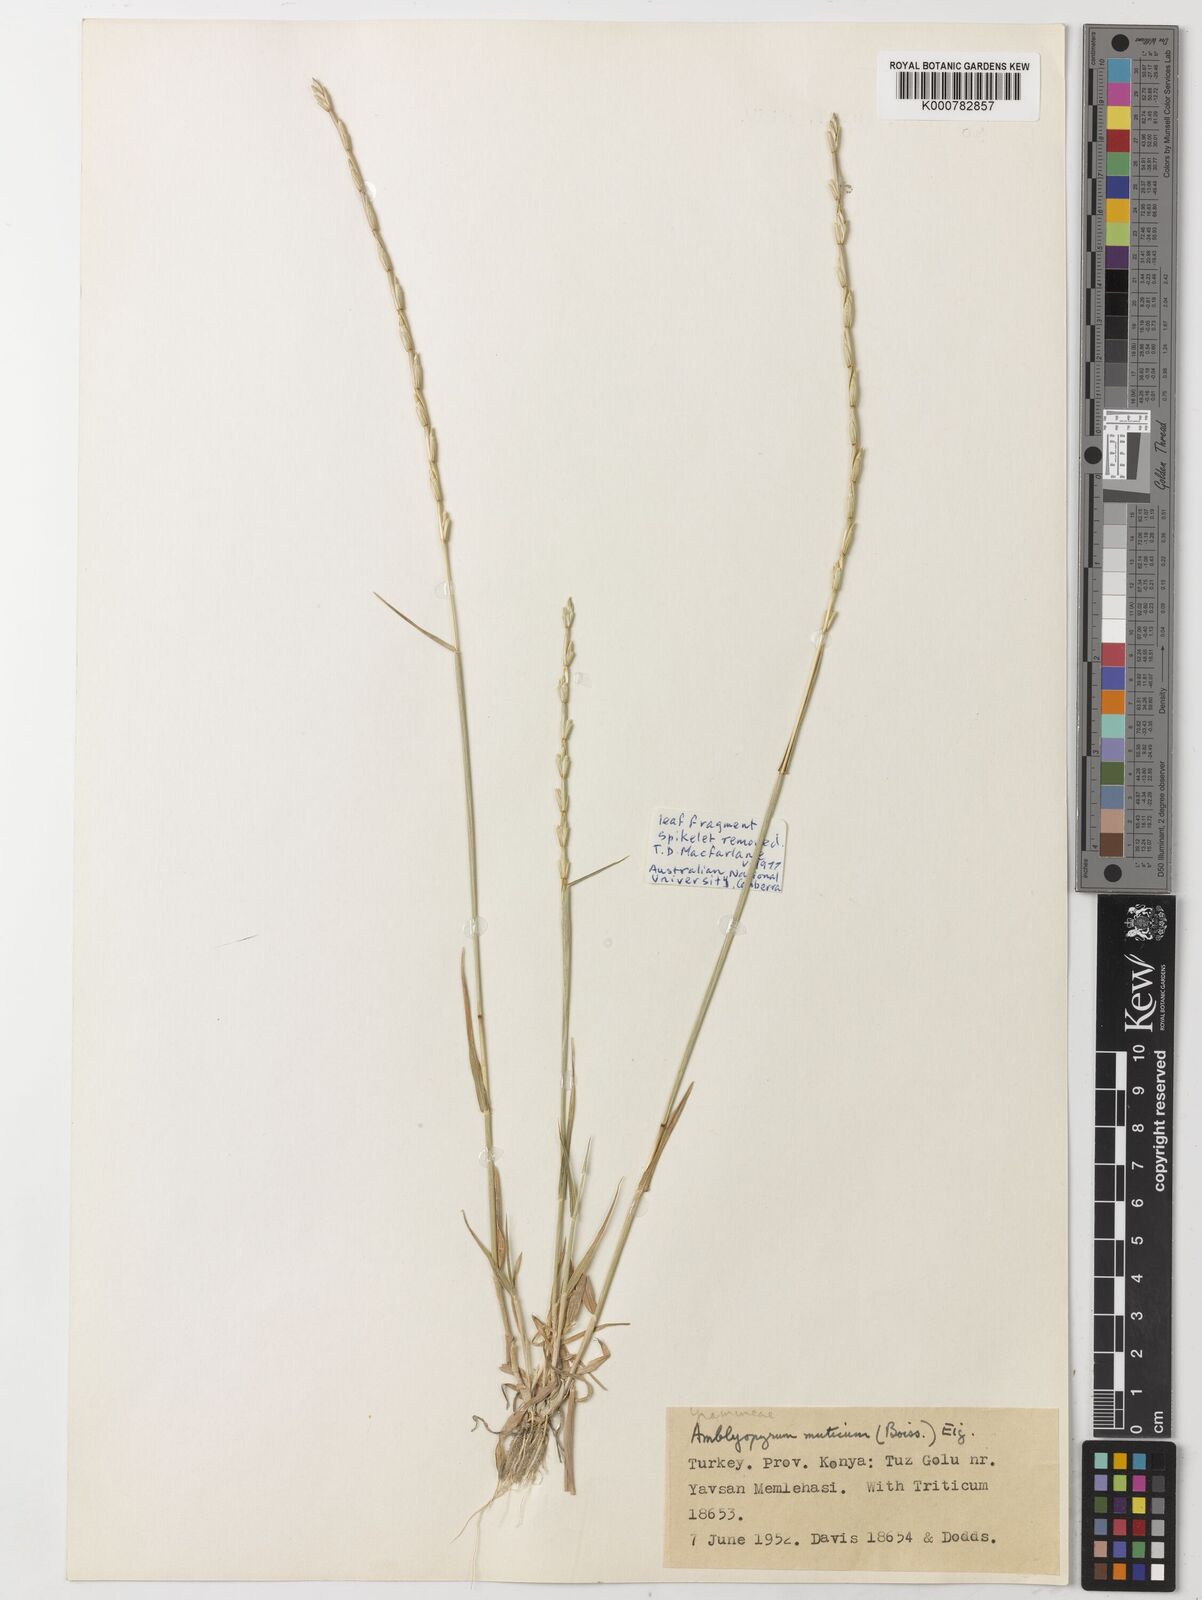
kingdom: Plantae
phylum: Tracheophyta
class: Liliopsida
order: Poales
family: Poaceae
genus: Aegilops
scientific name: Aegilops mutica
